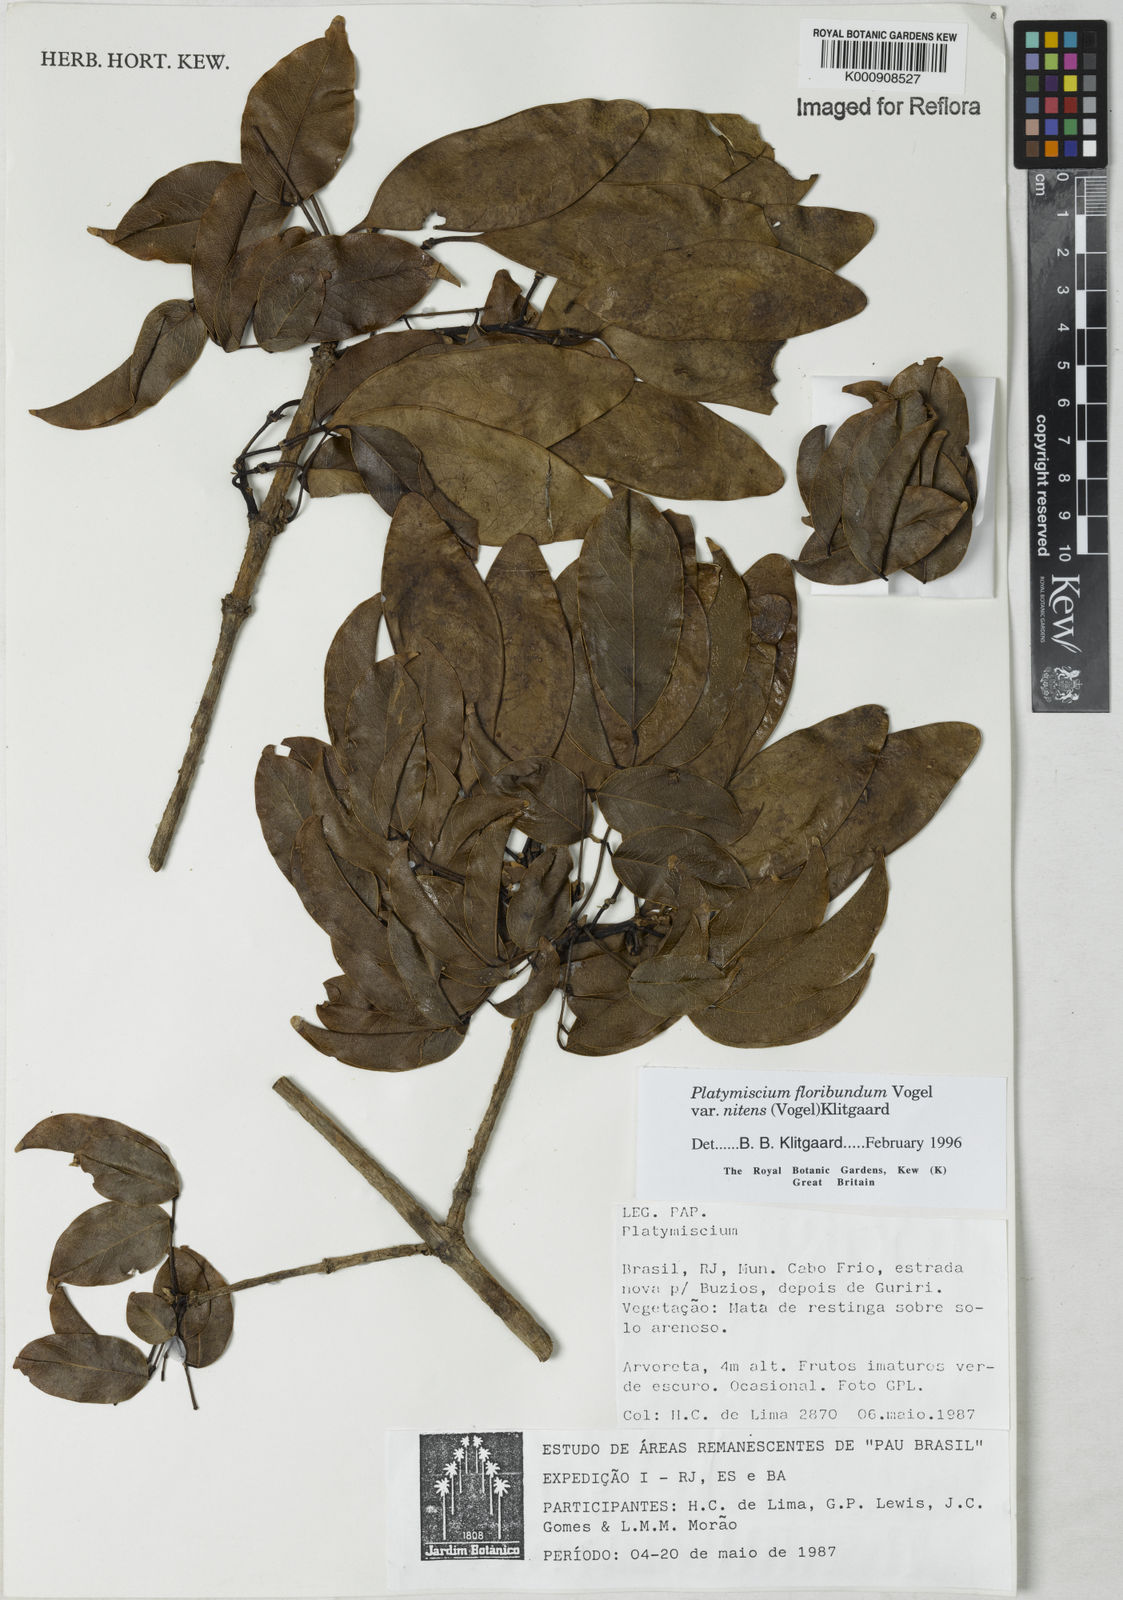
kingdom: Plantae
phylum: Tracheophyta
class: Magnoliopsida
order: Fabales
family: Fabaceae
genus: Platymiscium
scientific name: Platymiscium floribundum
